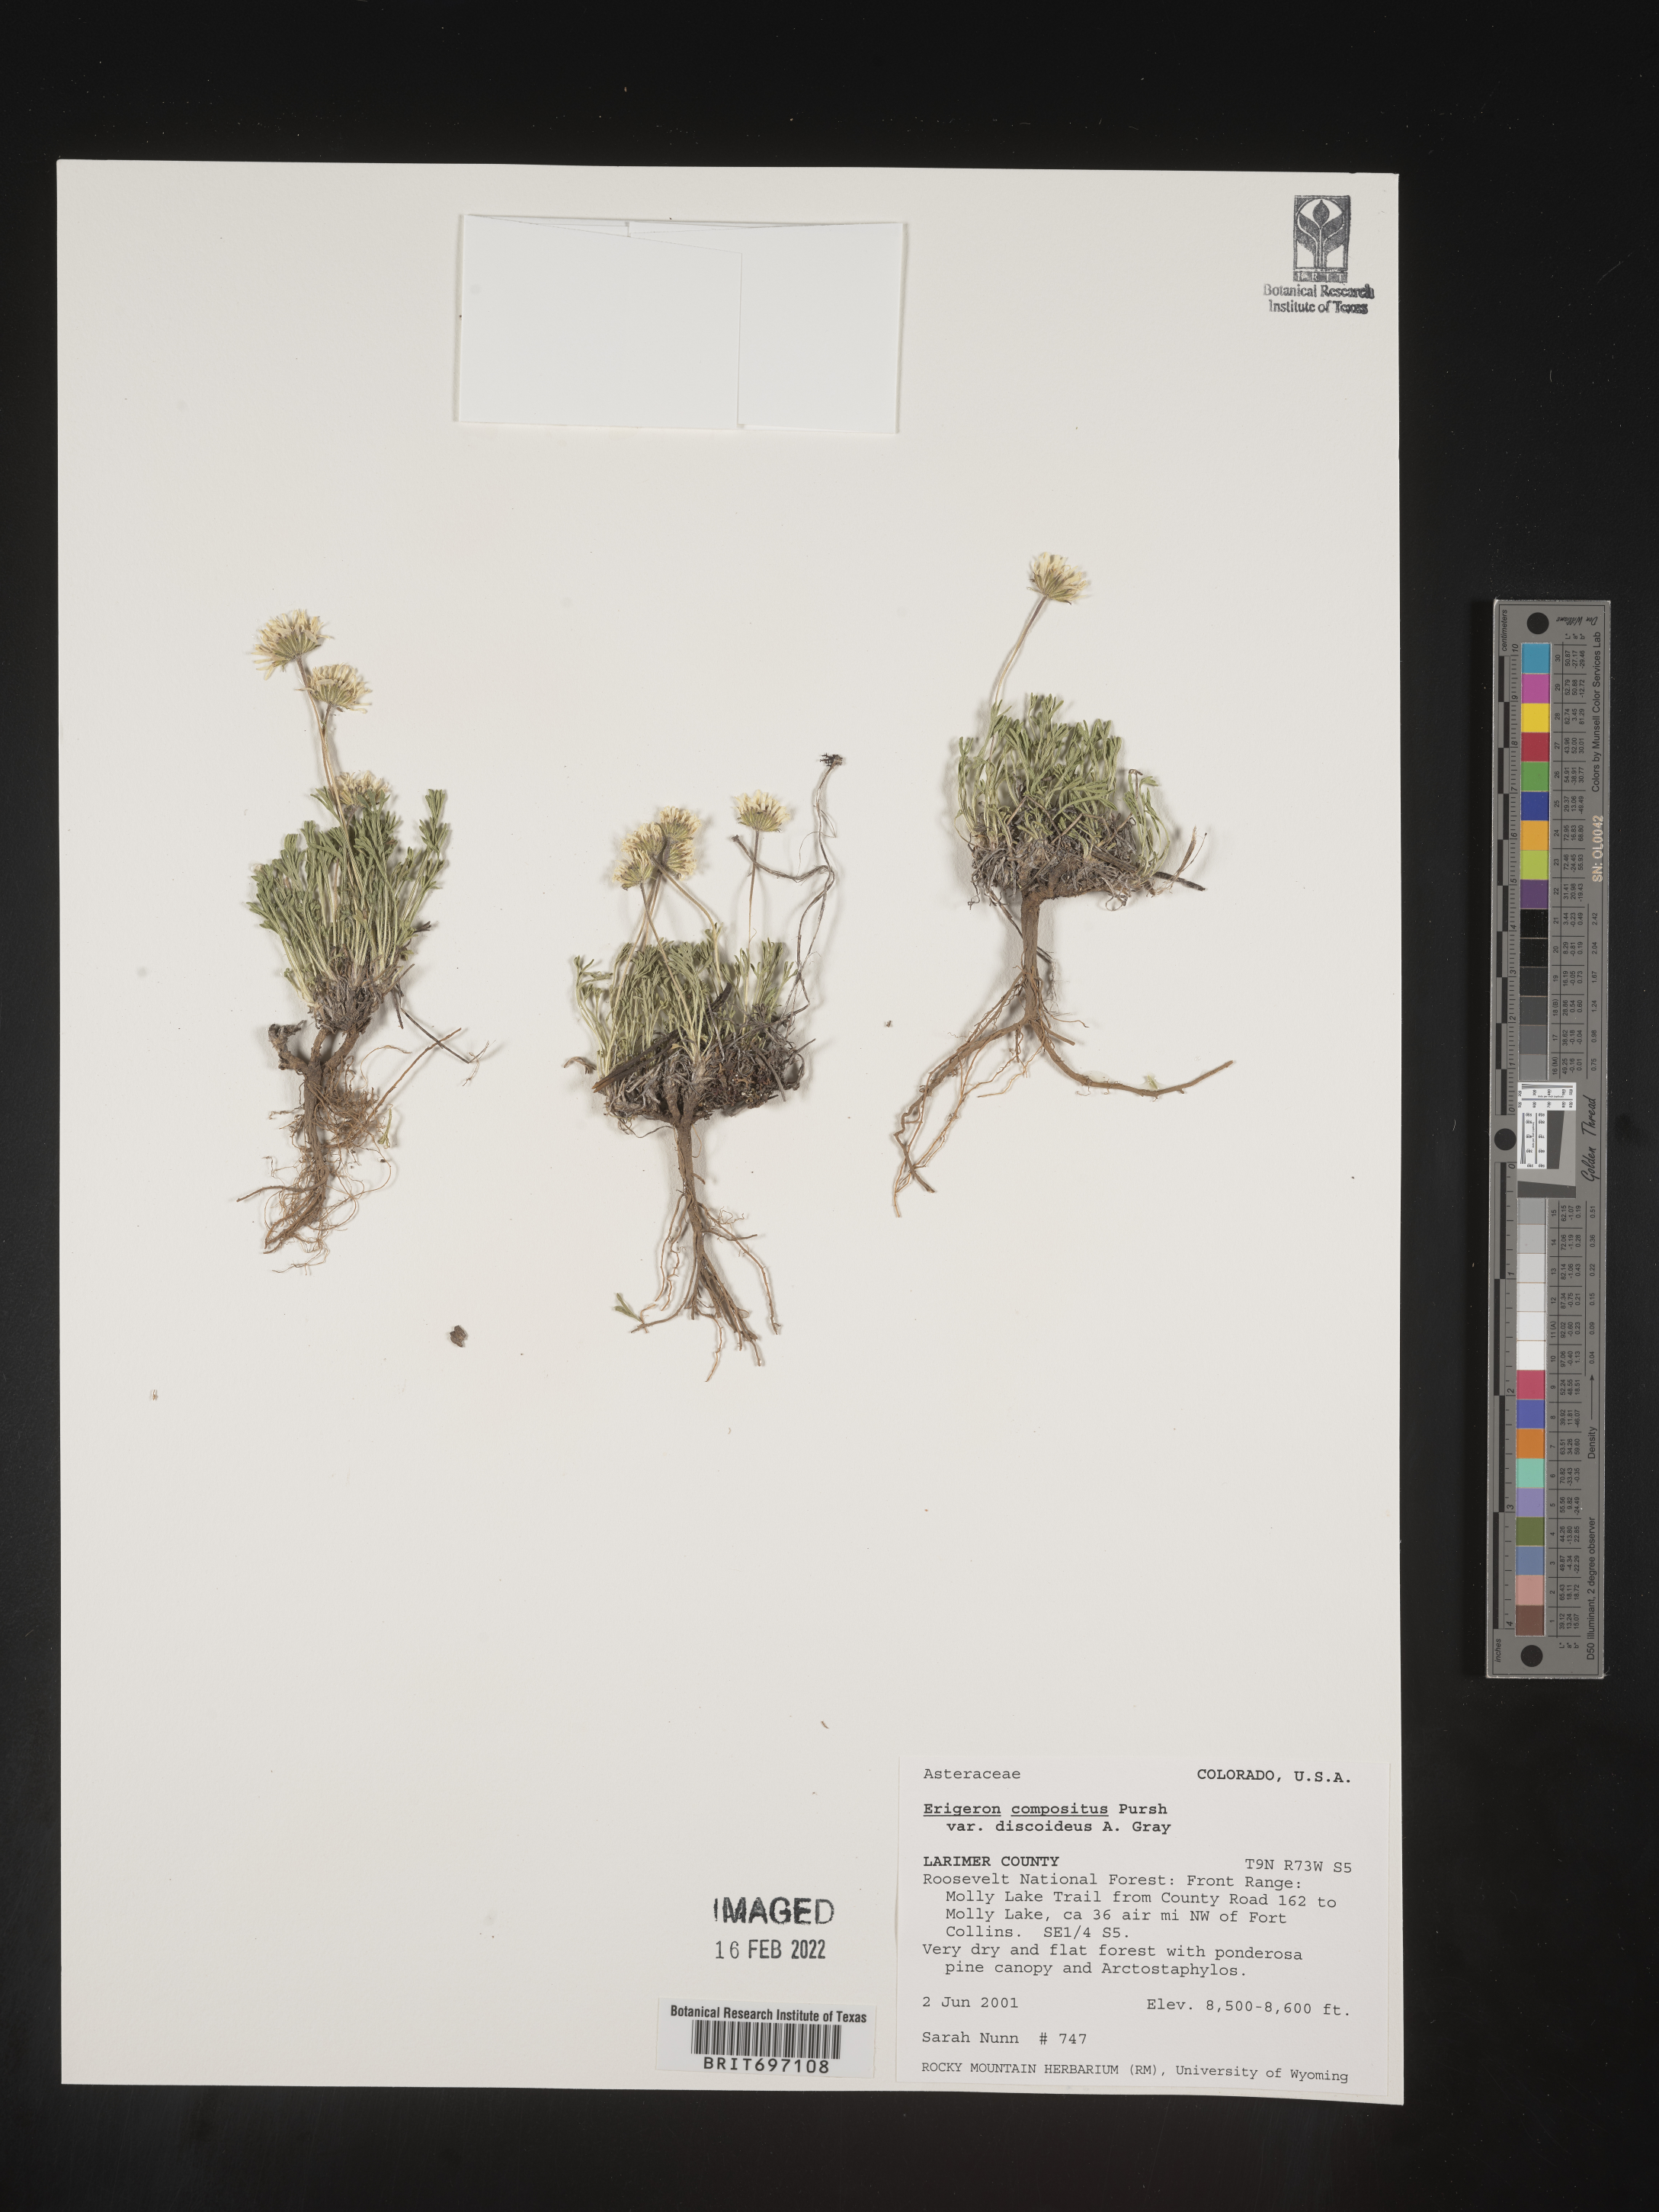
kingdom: Plantae
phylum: Tracheophyta
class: Magnoliopsida
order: Asterales
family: Asteraceae
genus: Erigeron
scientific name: Erigeron compositus
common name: Dwarf mountain fleabane
